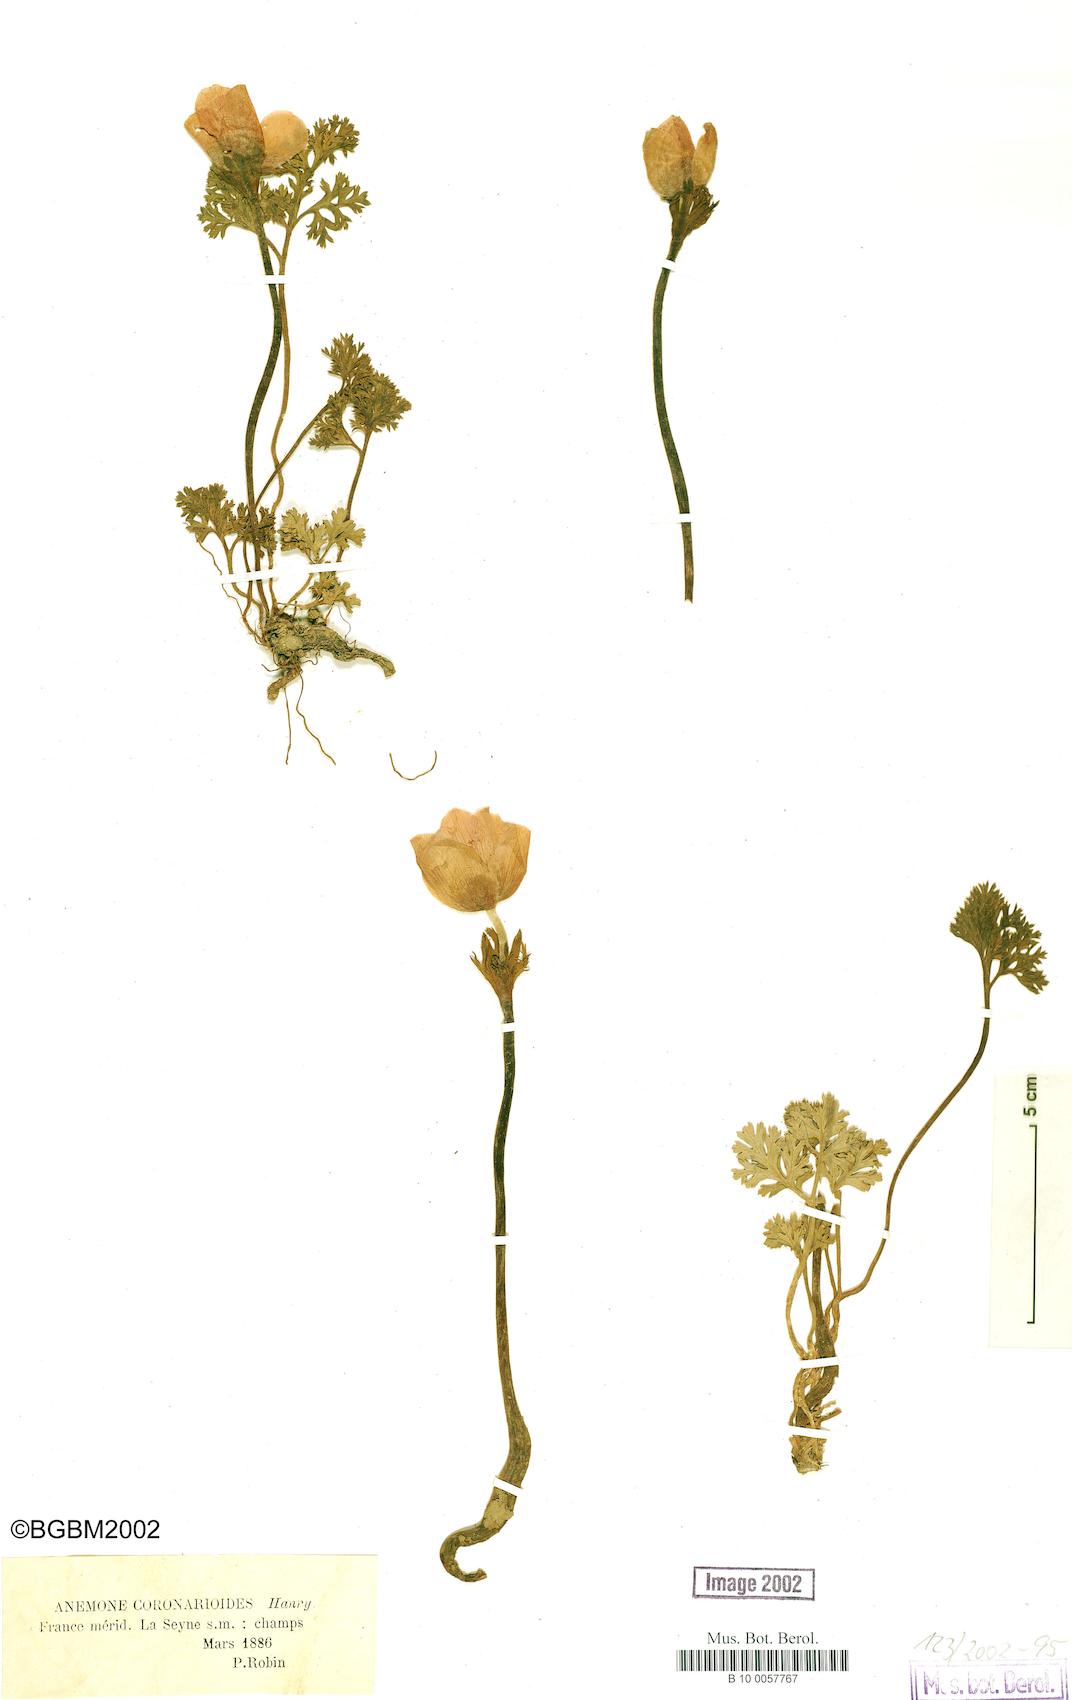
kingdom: Plantae
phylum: Tracheophyta
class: Magnoliopsida
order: Ranunculales
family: Ranunculaceae
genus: Anemone
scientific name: Anemone
